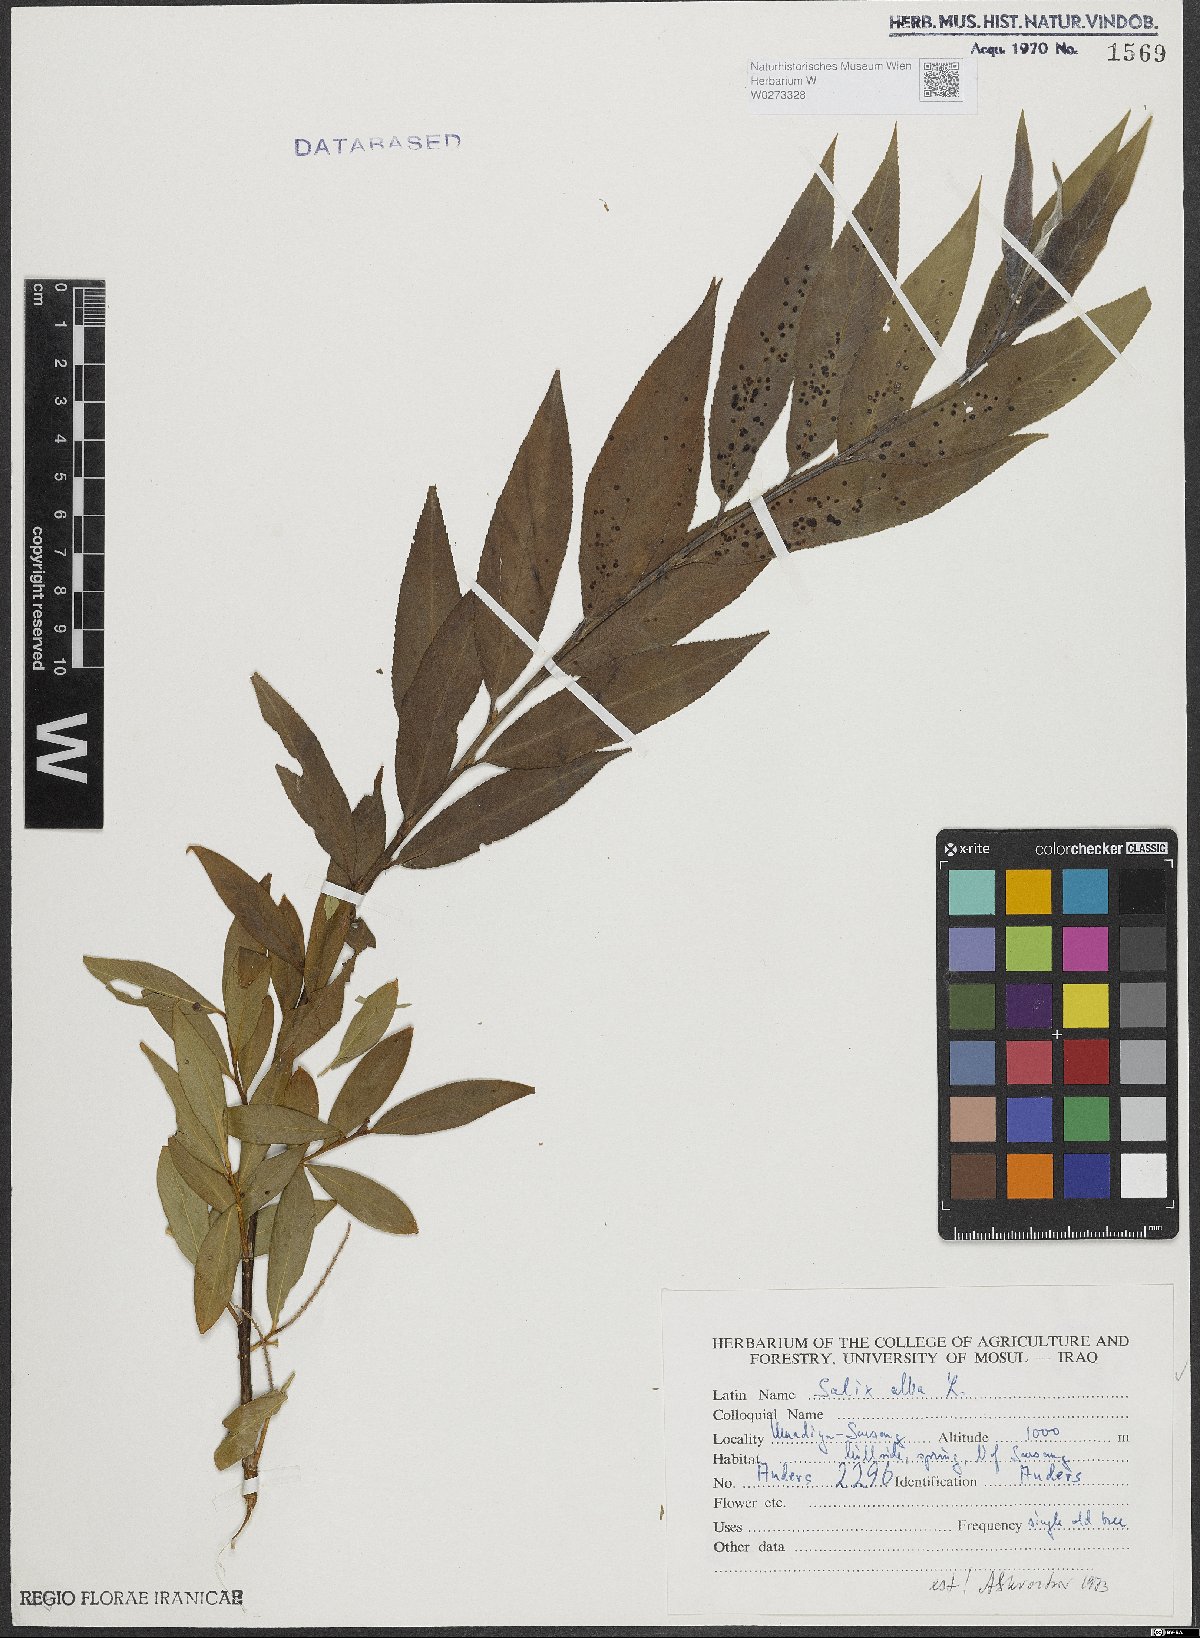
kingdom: Plantae
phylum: Tracheophyta
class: Magnoliopsida
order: Malpighiales
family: Salicaceae
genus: Salix
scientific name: Salix alba
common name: White willow
